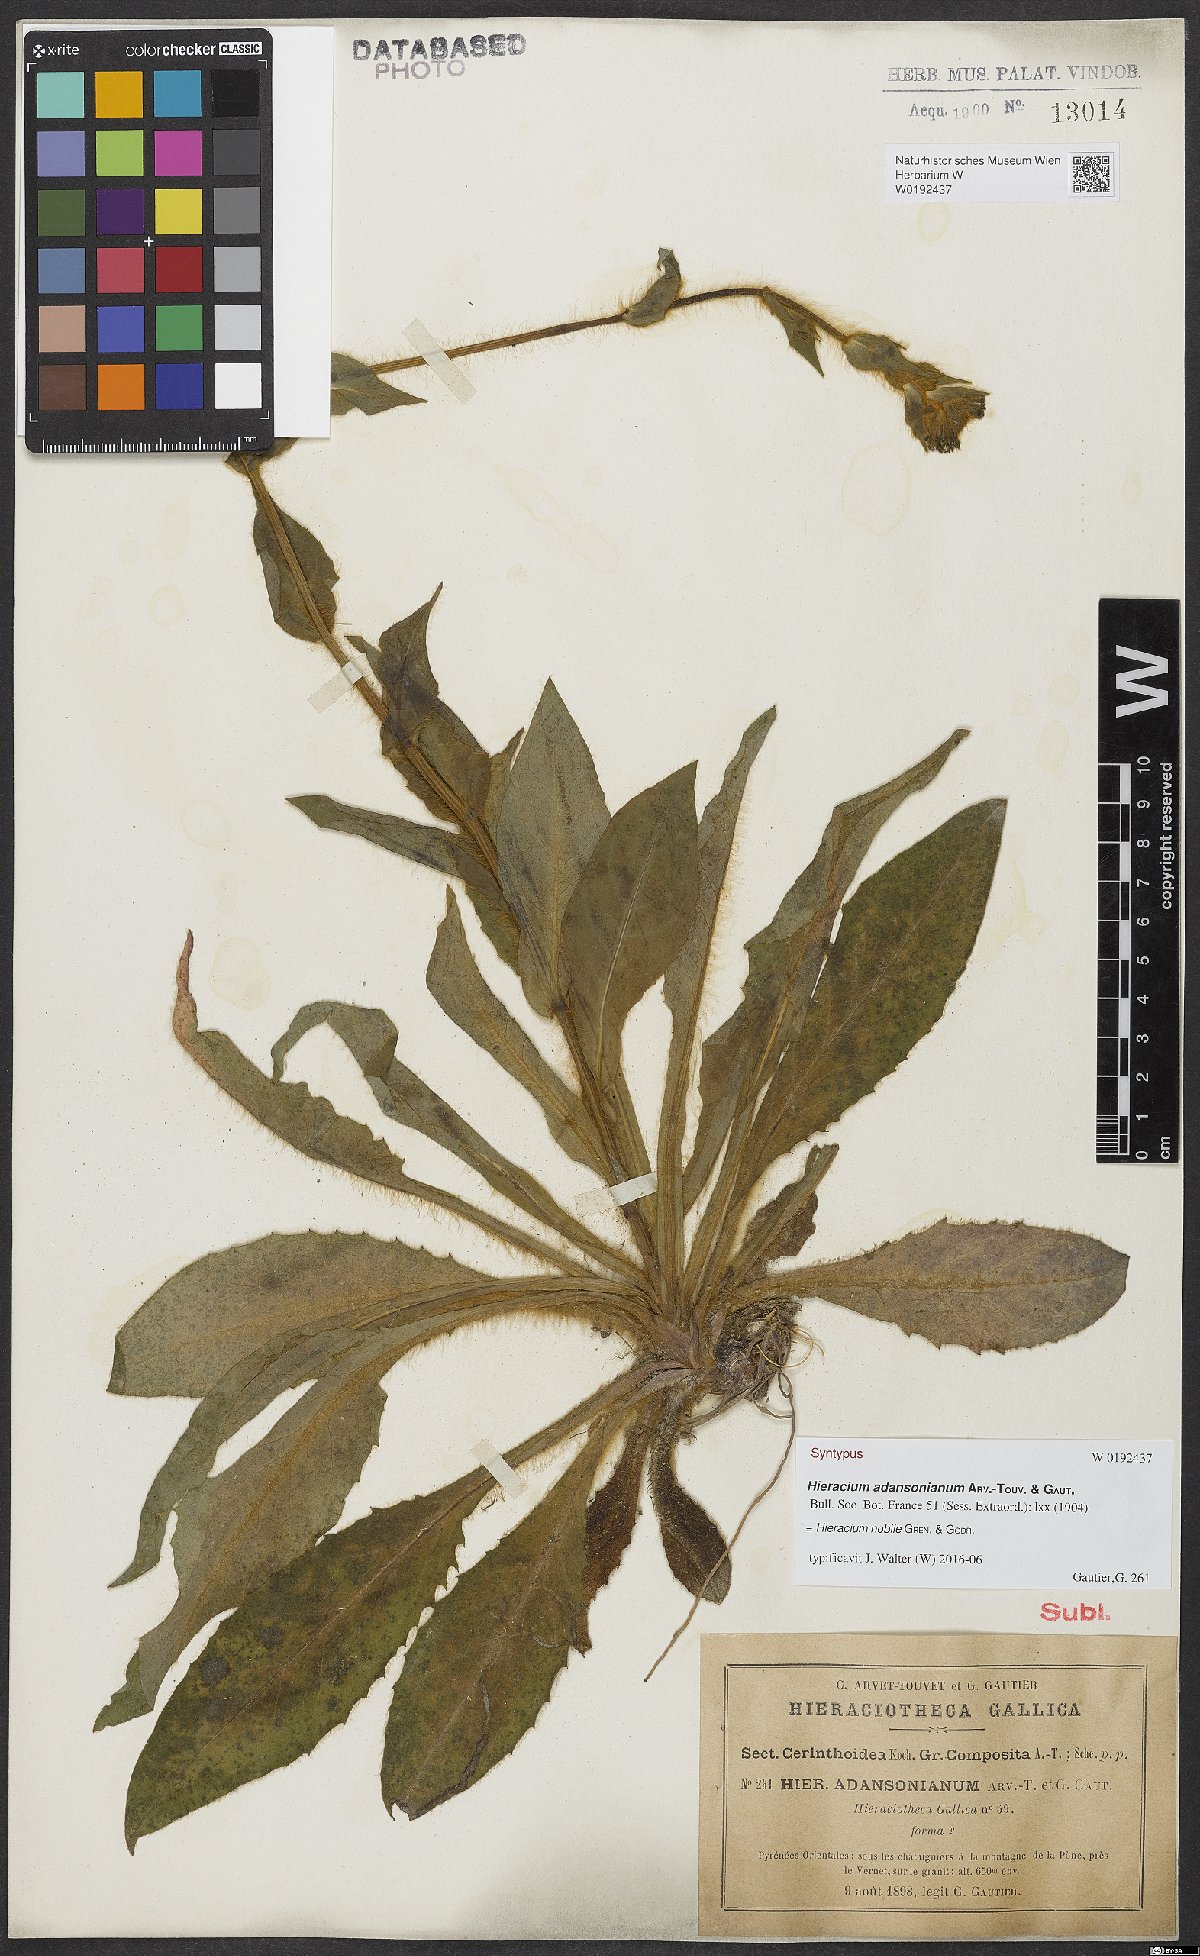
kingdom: Plantae
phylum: Tracheophyta
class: Magnoliopsida
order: Asterales
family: Asteraceae
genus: Hieracium
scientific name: Hieracium nobile
